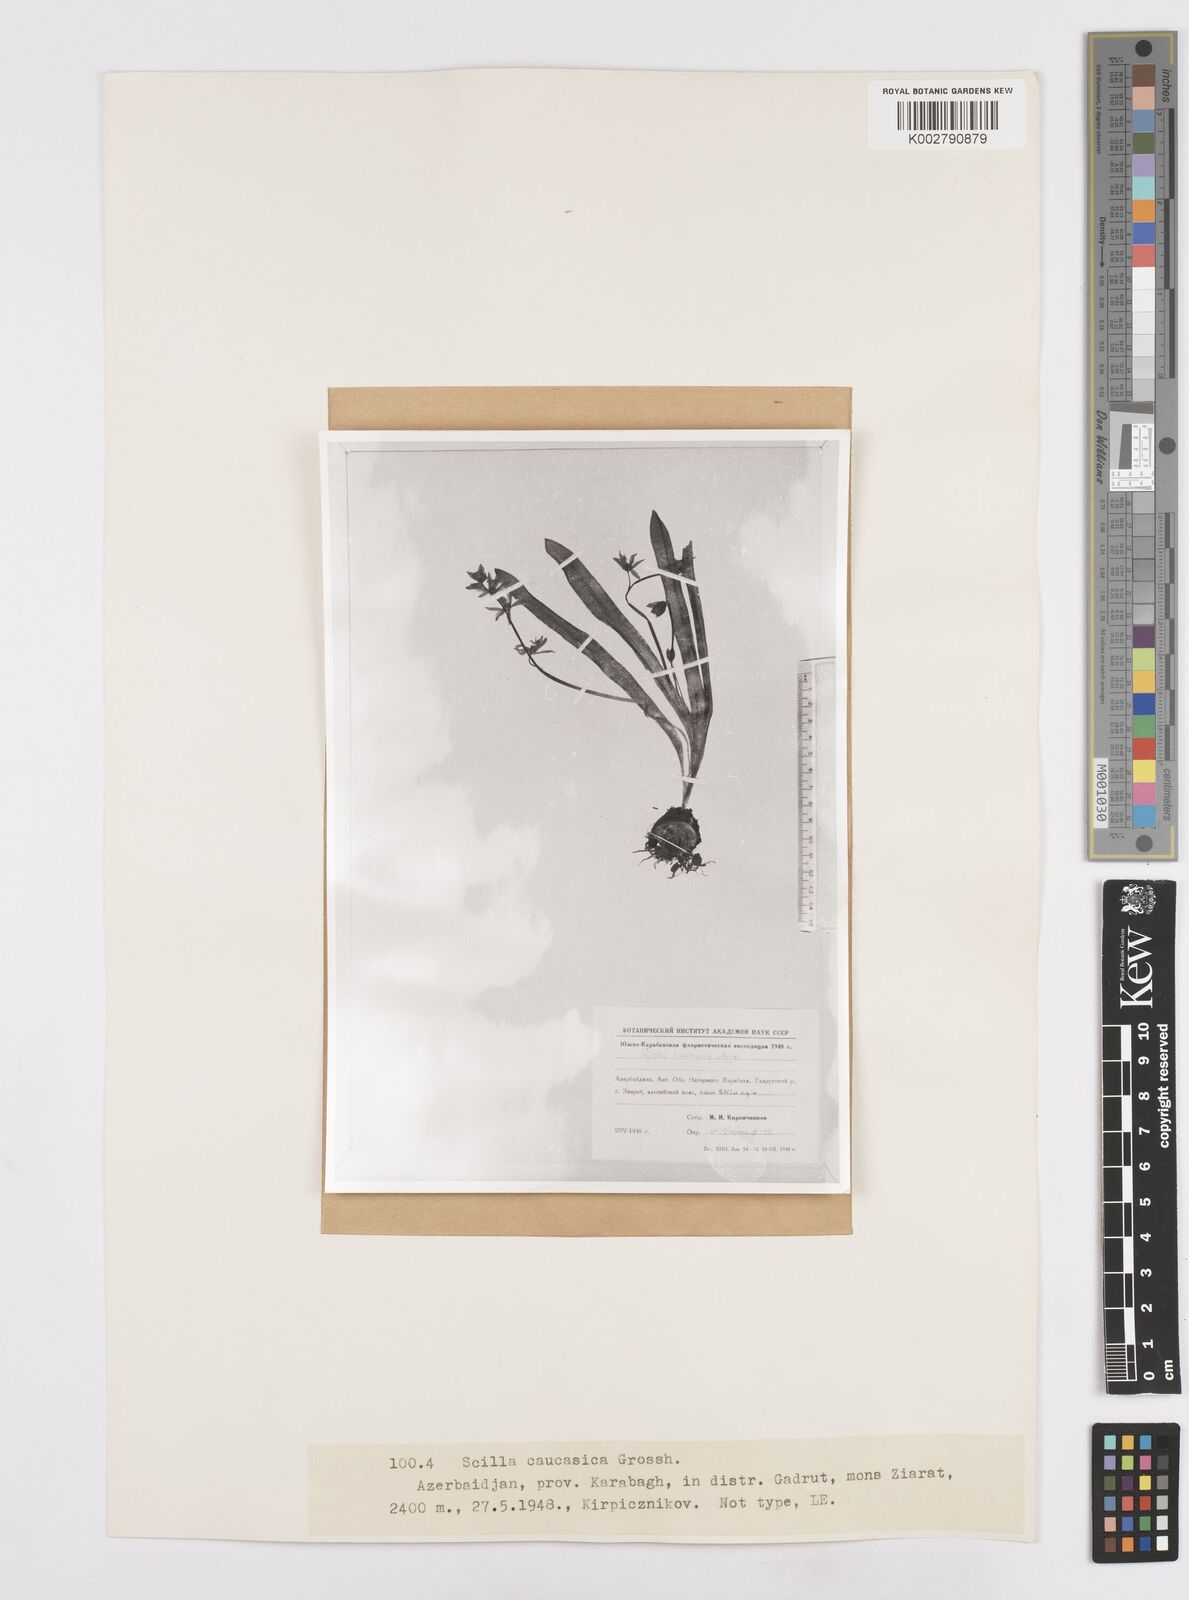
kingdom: Plantae
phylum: Tracheophyta
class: Liliopsida
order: Asparagales
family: Asparagaceae
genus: Scilla
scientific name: Scilla siberica
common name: Siberian squill
